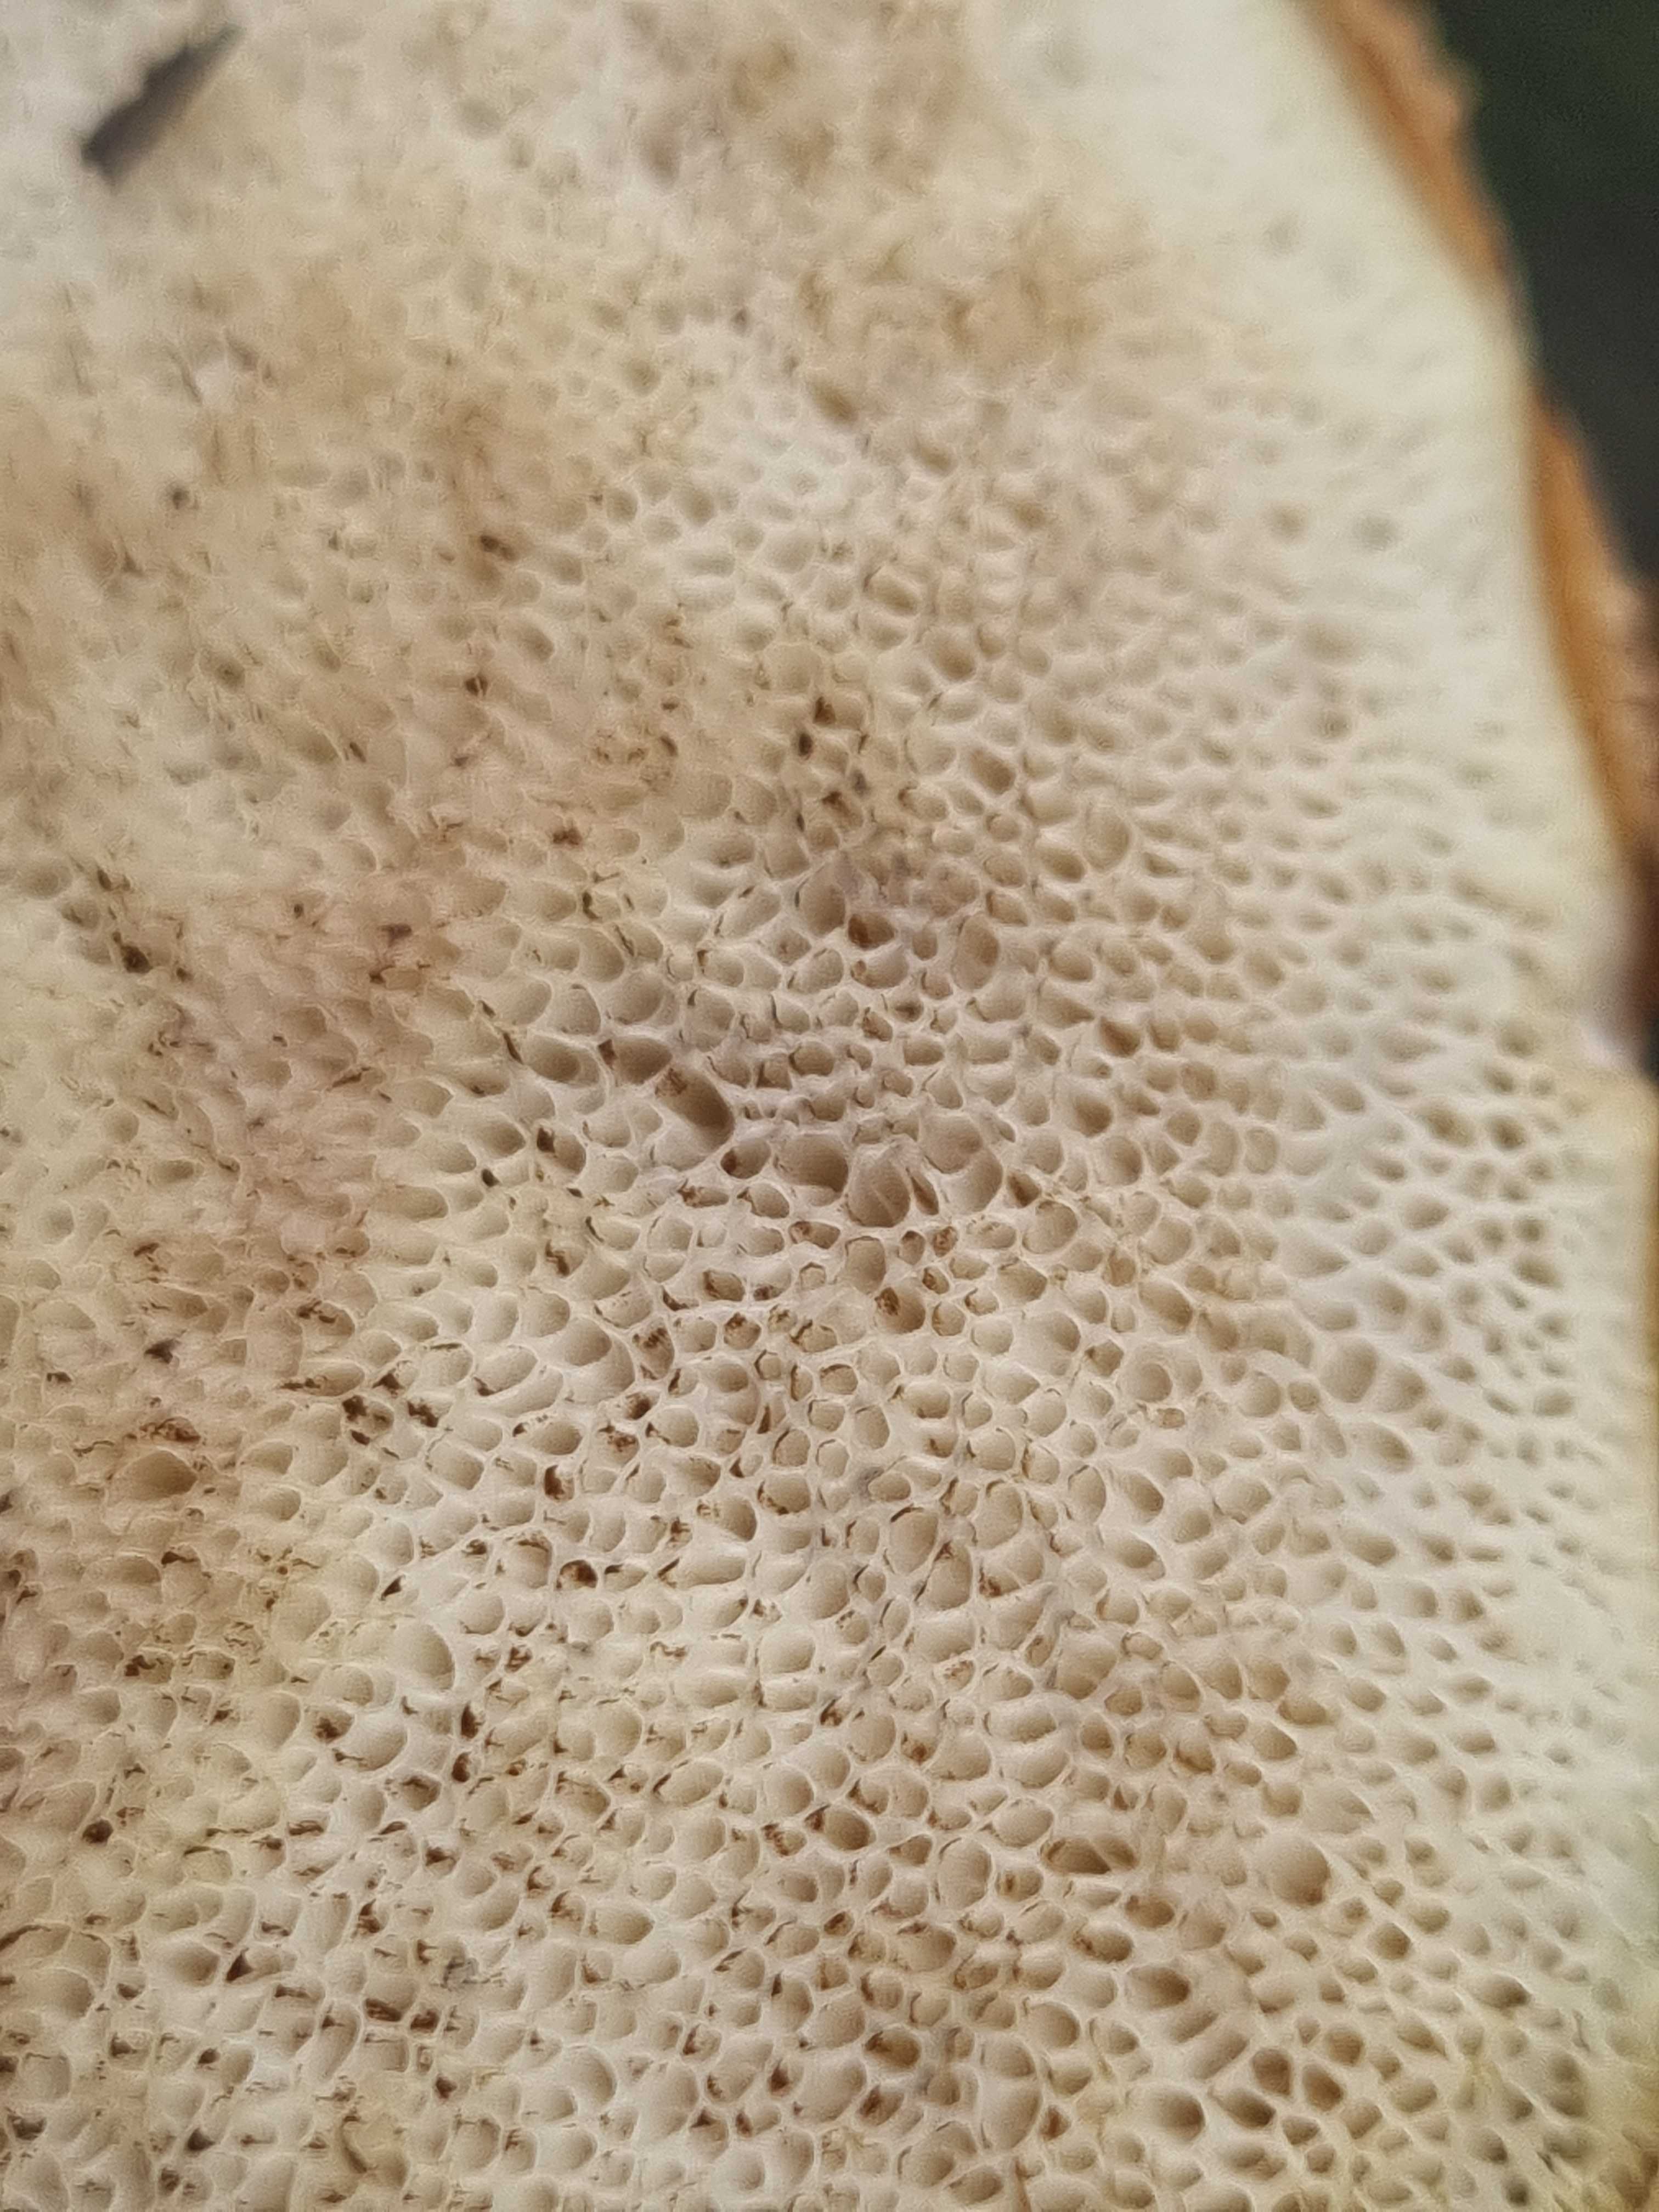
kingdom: Fungi
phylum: Basidiomycota
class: Agaricomycetes
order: Boletales
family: Boletaceae
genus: Leccinum
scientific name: Leccinum
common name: skælrørhat
